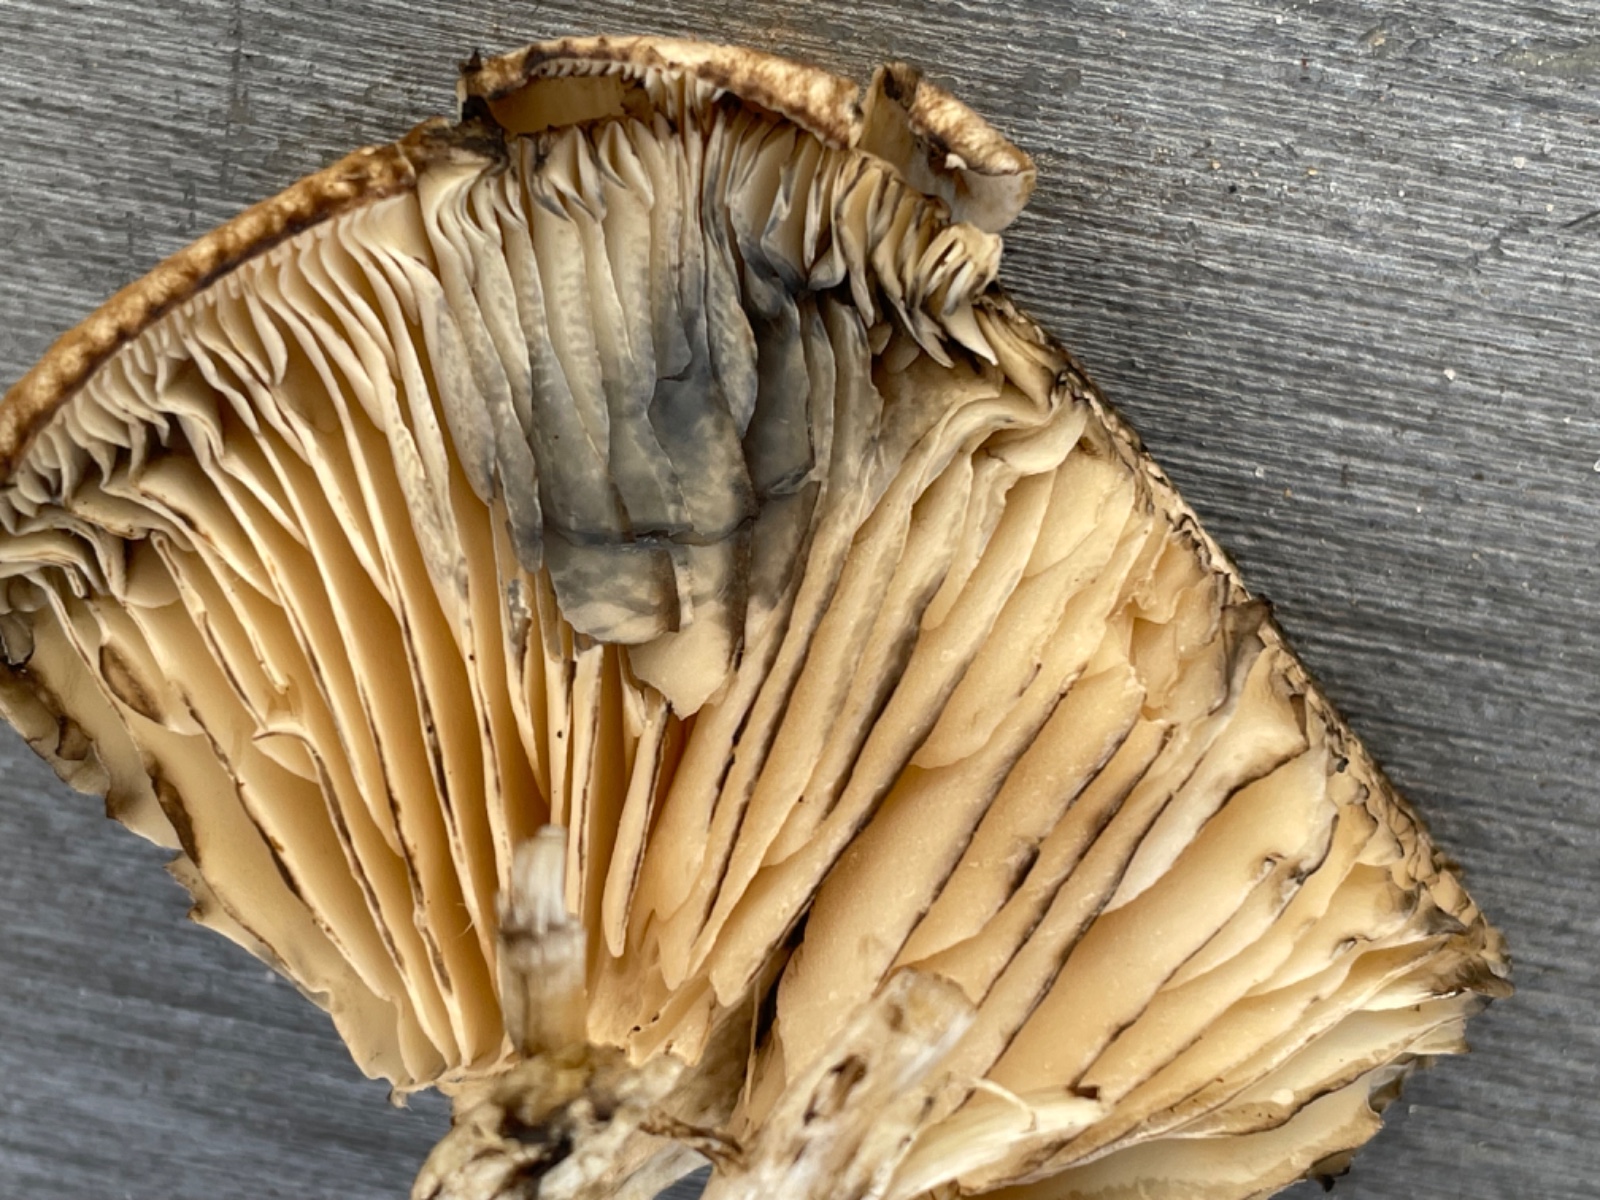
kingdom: Fungi
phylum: Basidiomycota
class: Agaricomycetes
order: Agaricales
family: Lyophyllaceae
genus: Lyophyllum
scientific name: Lyophyllum
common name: gråblad
